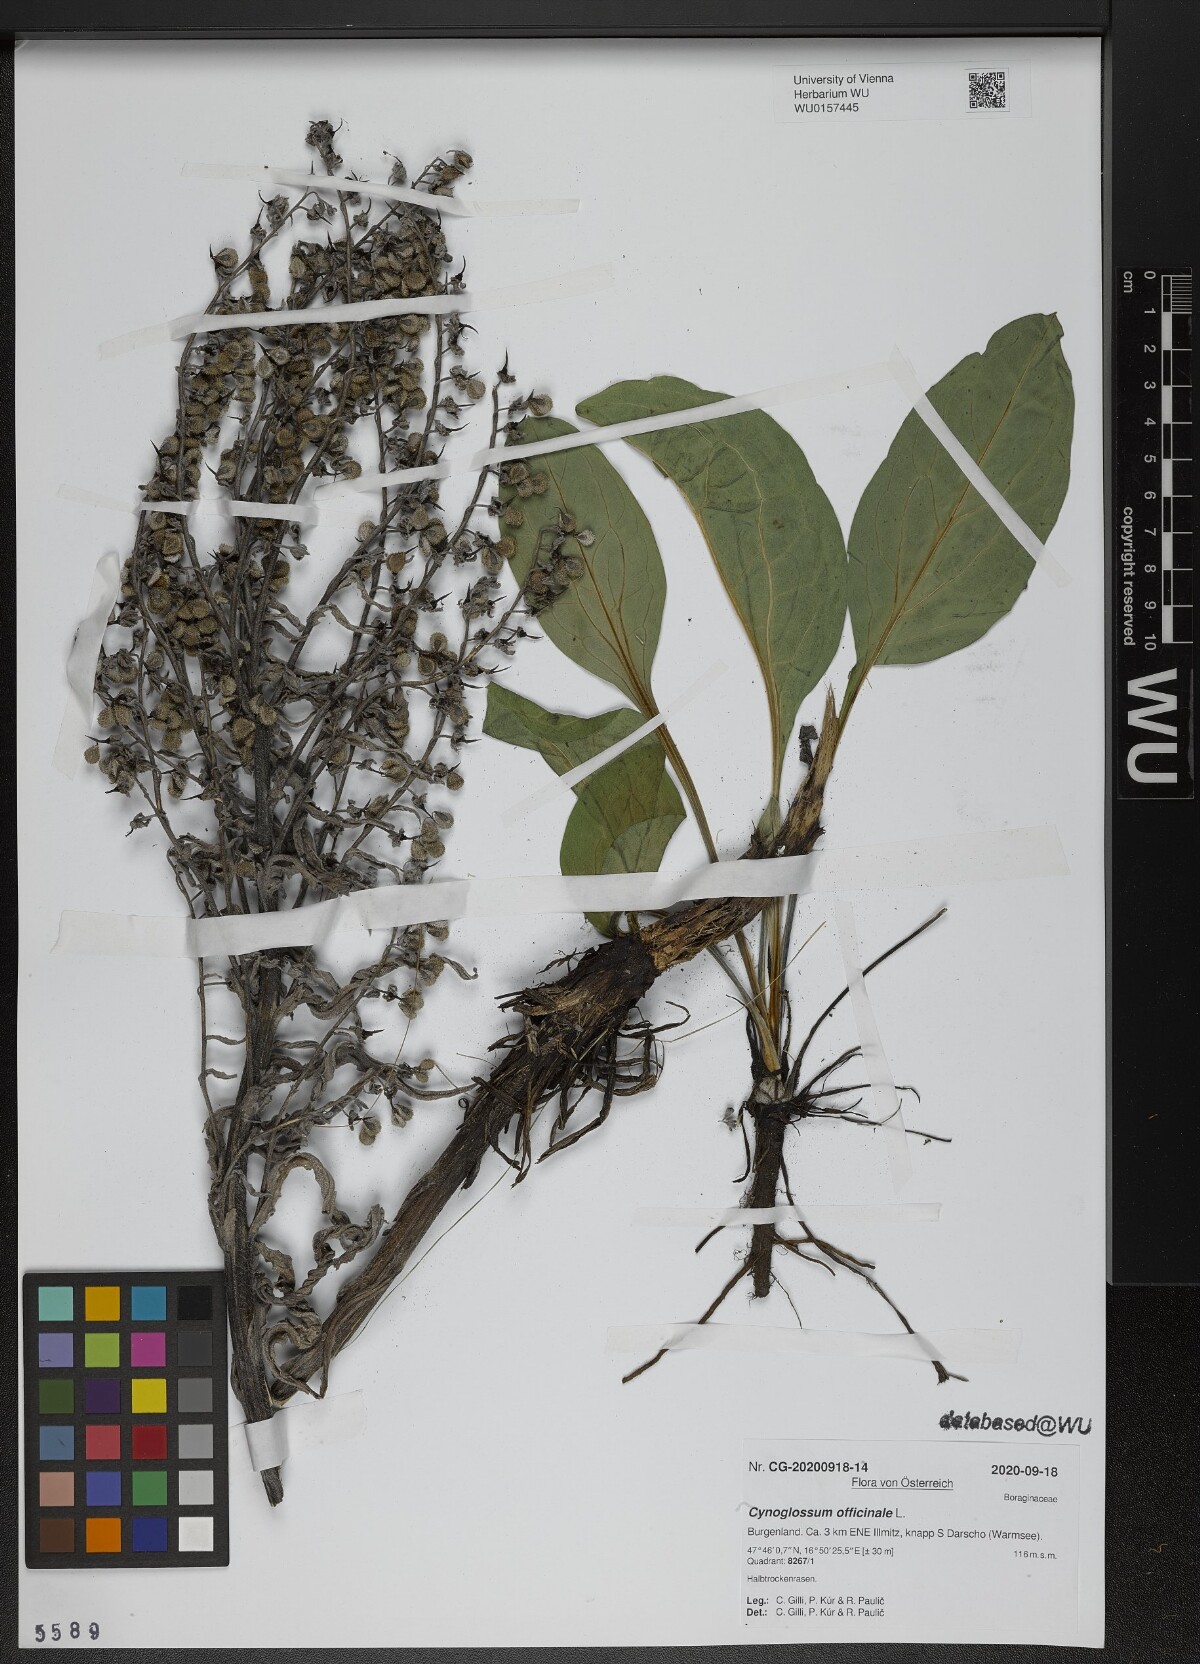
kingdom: Plantae
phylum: Tracheophyta
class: Magnoliopsida
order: Boraginales
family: Boraginaceae
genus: Cynoglossum
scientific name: Cynoglossum officinale
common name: Hound's-tongue
